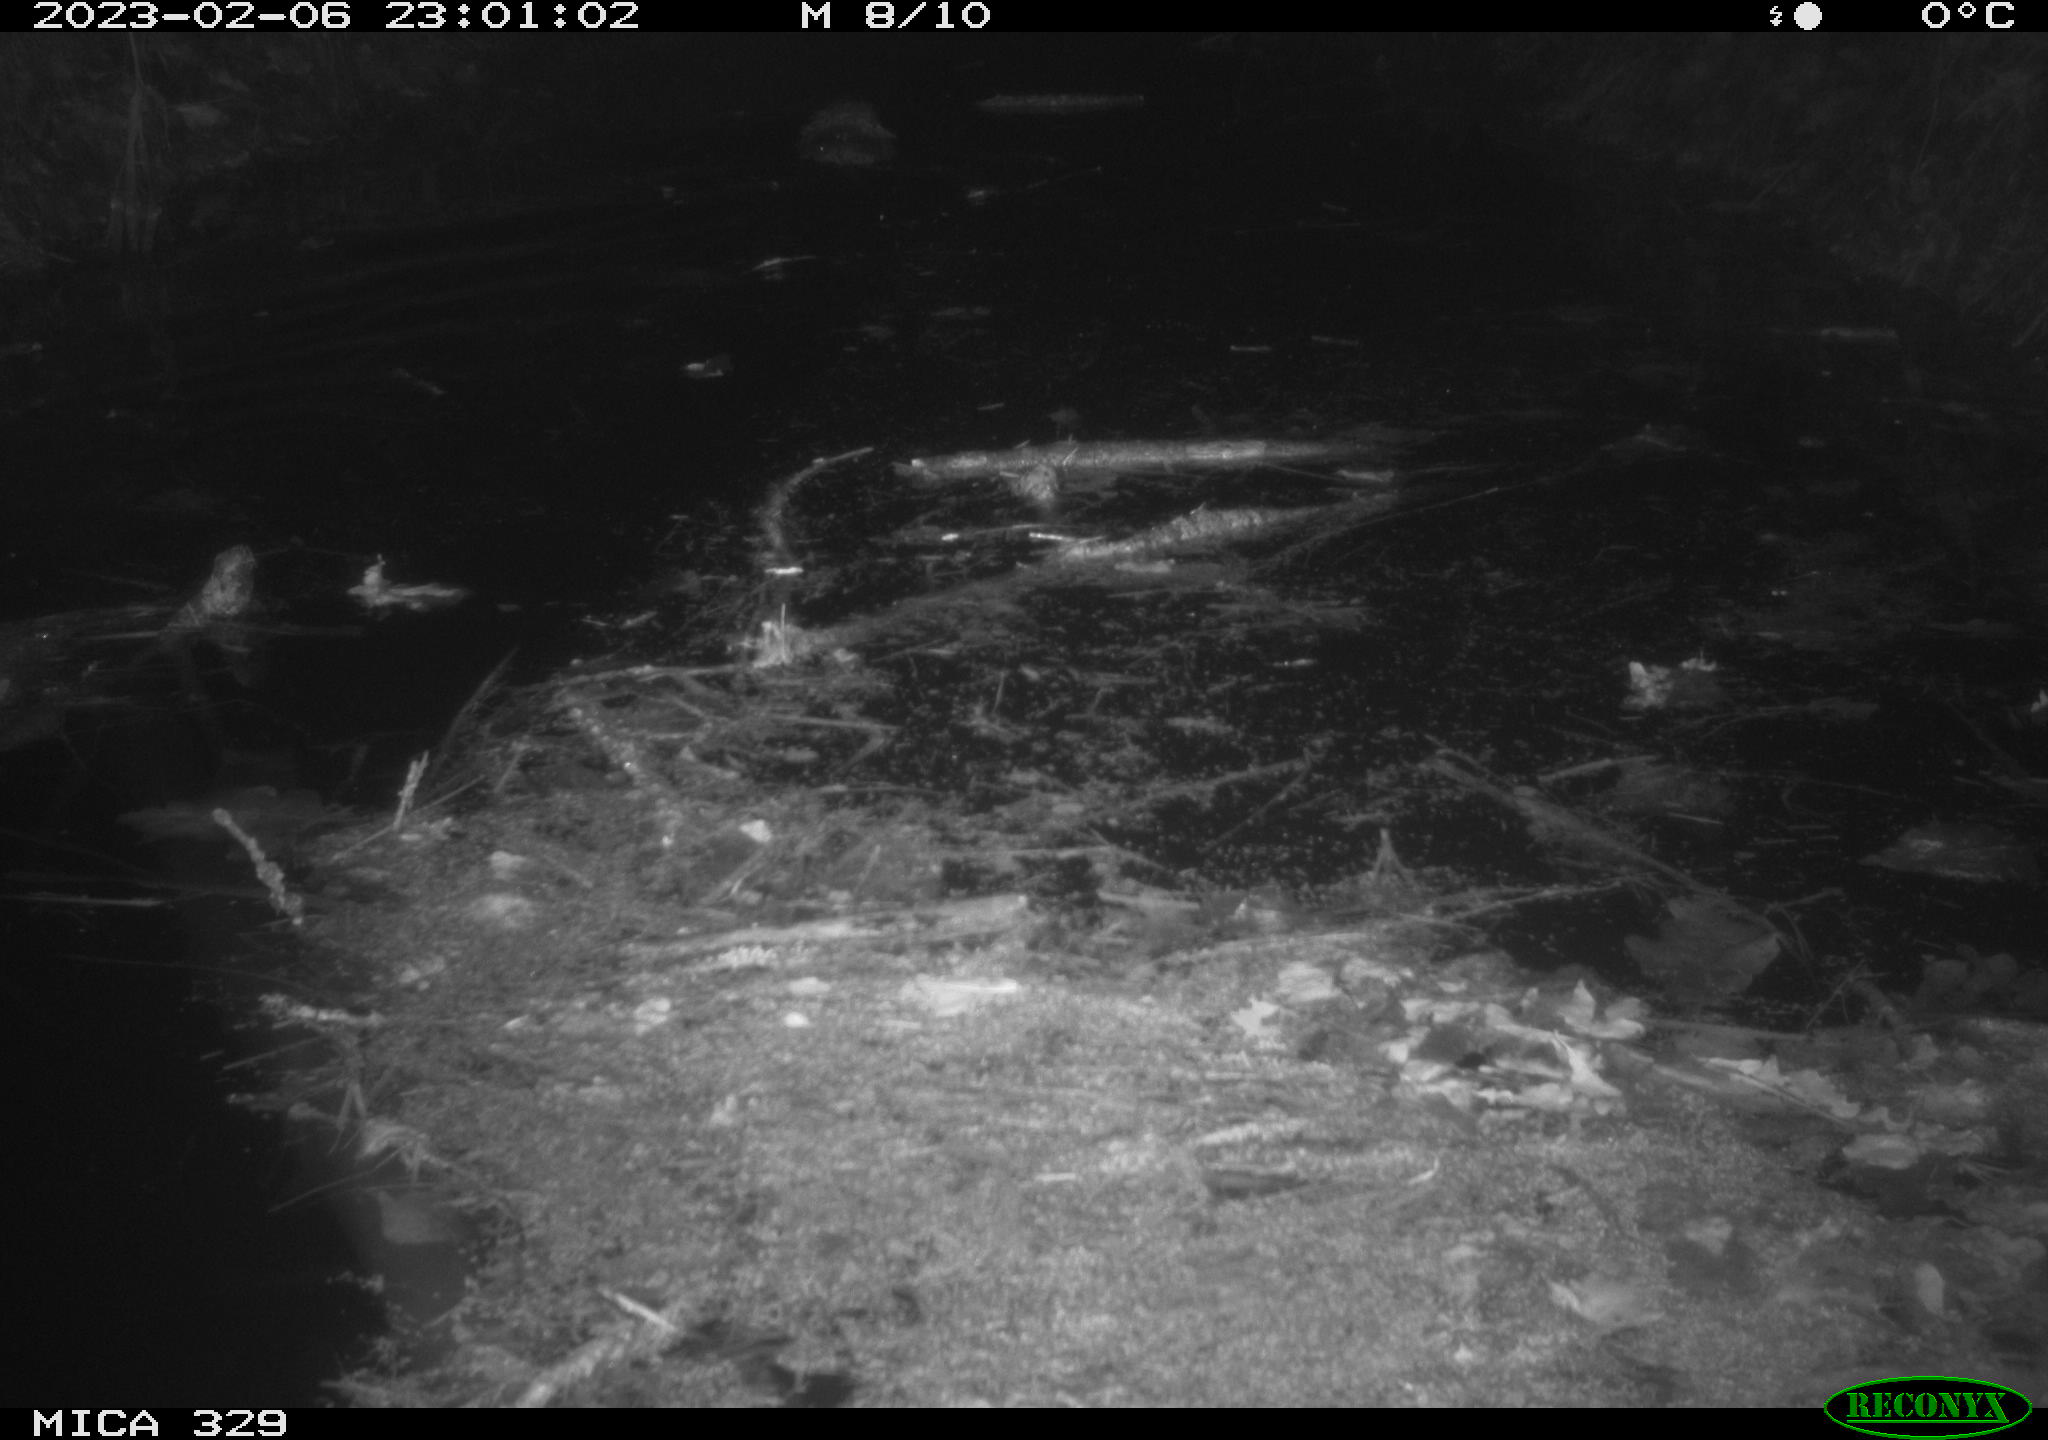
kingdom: Animalia
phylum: Chordata
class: Mammalia
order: Rodentia
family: Cricetidae
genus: Ondatra
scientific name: Ondatra zibethicus
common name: Muskrat
